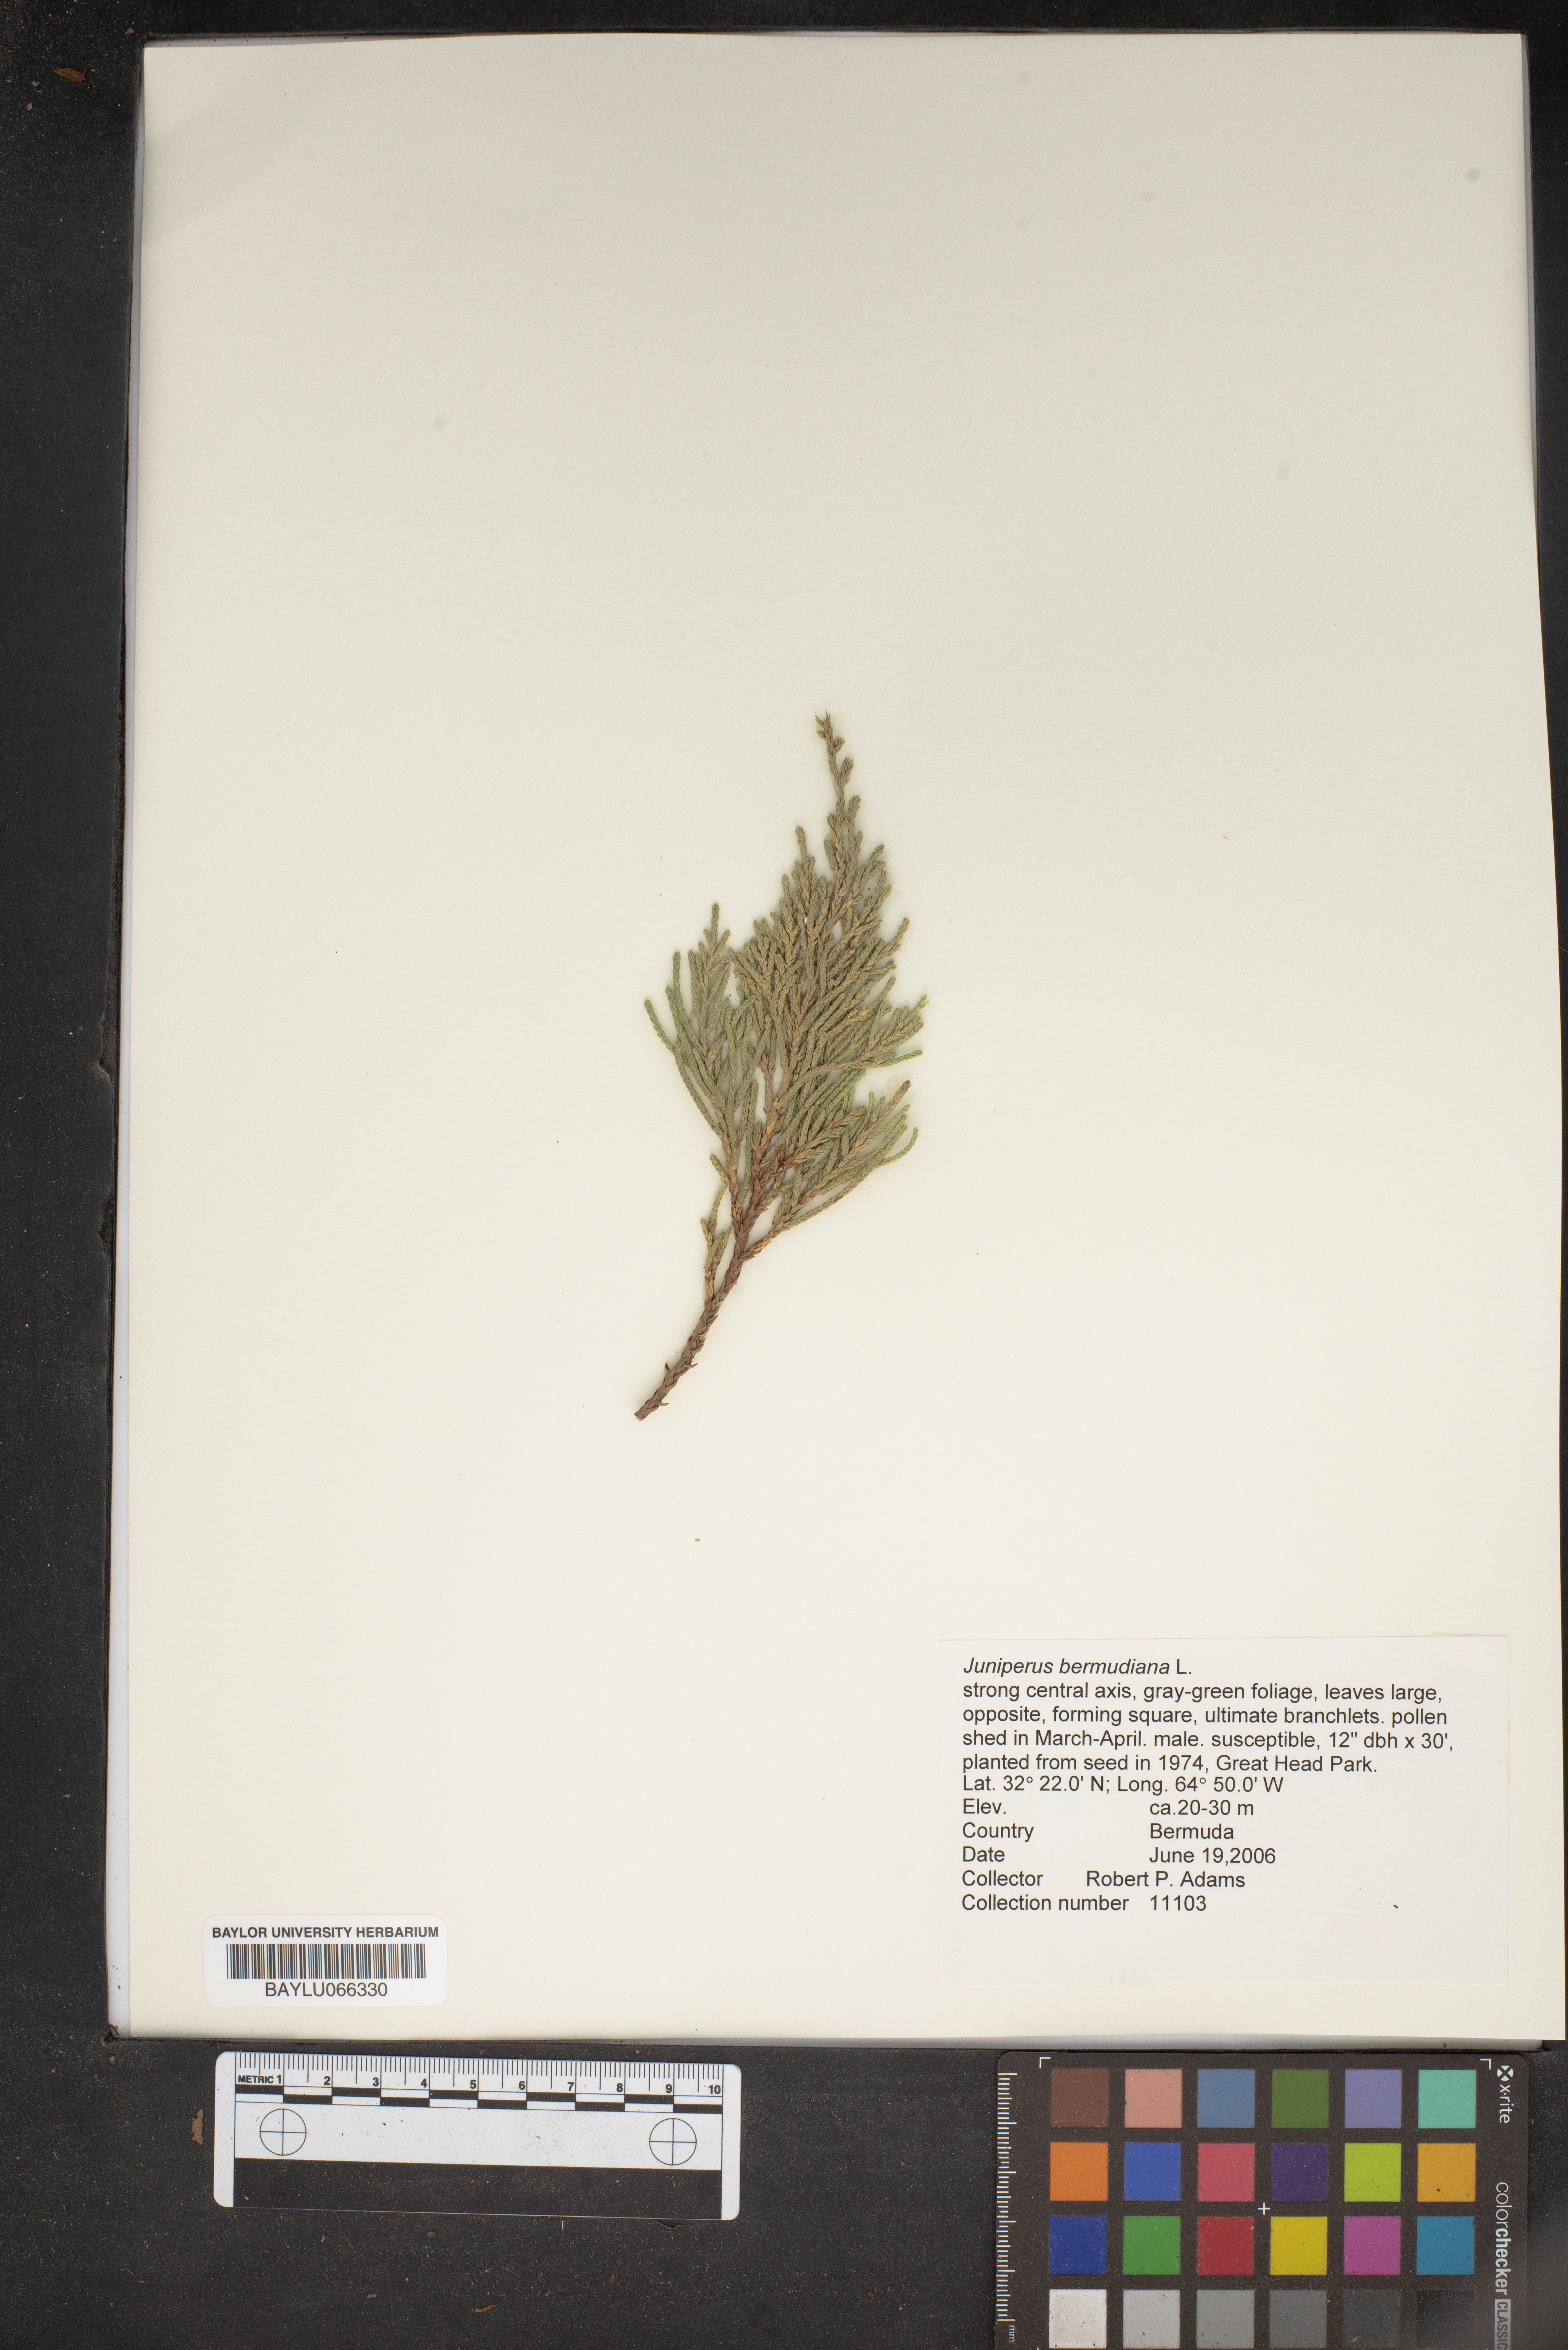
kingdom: Plantae
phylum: Tracheophyta
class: Pinopsida
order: Pinales
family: Cupressaceae
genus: Juniperus
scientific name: Juniperus bermudiana
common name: Bermuda juniper
